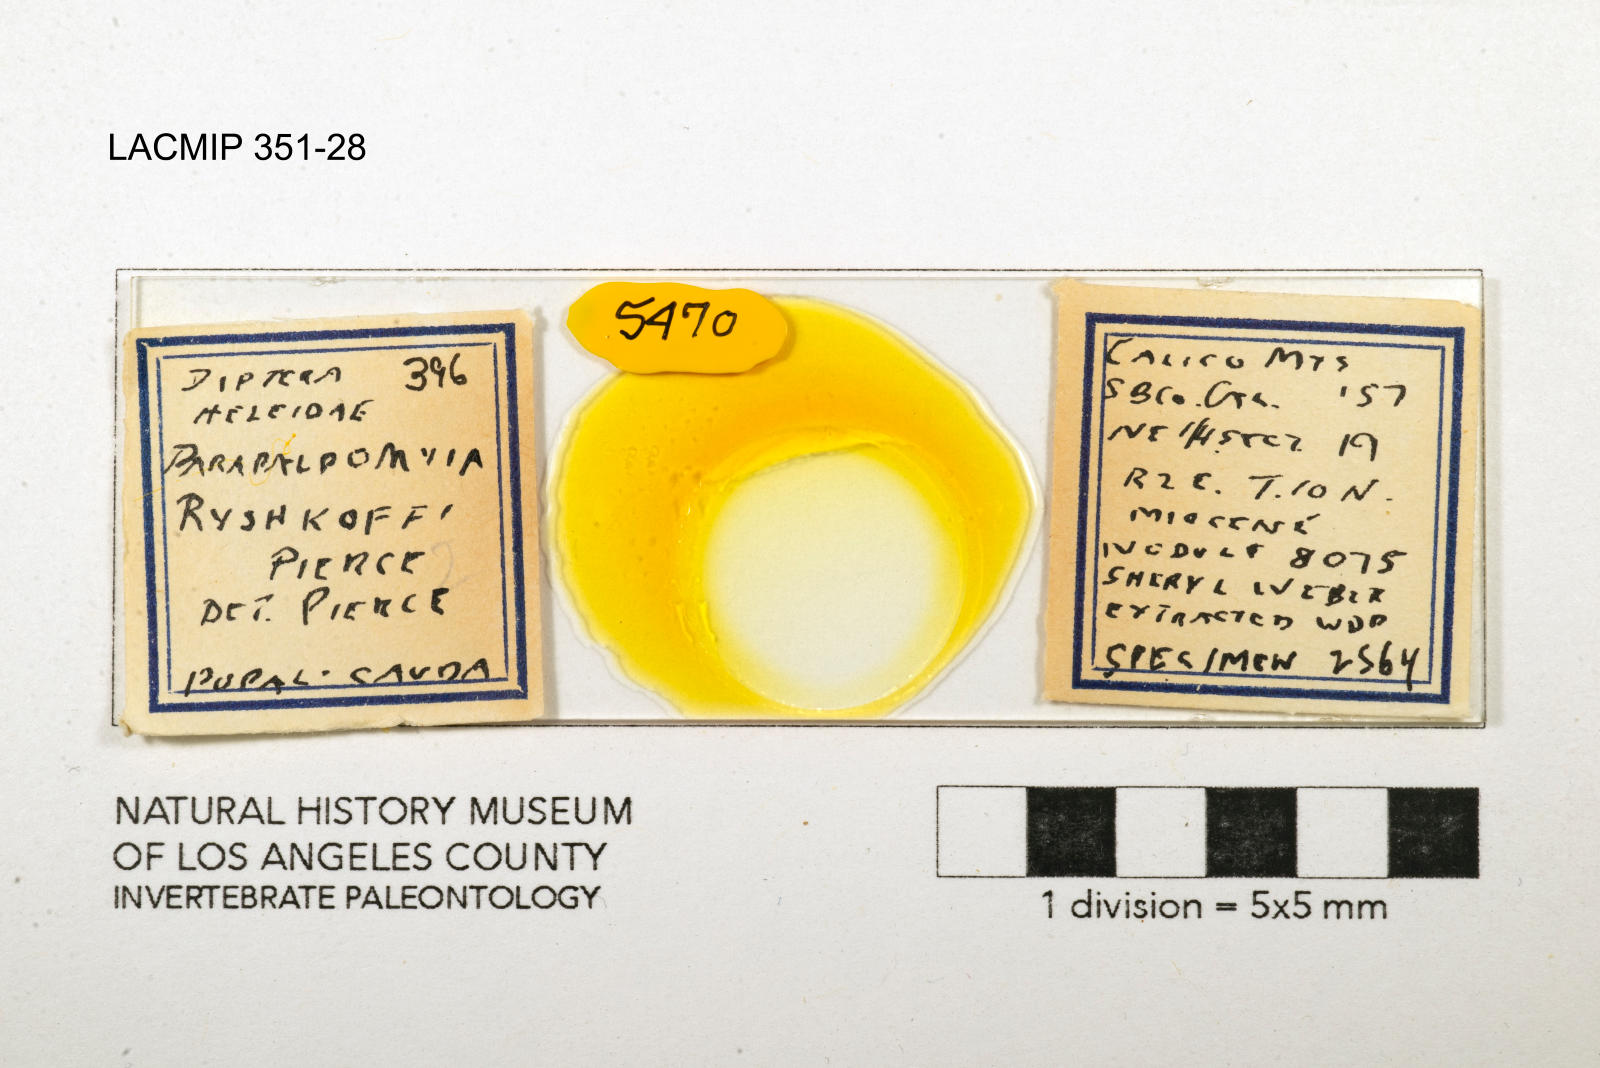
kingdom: Animalia
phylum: Arthropoda
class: Insecta
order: Diptera
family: Ceratopogonidae
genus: Palpomyia
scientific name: Palpomyia ryshkoffi
